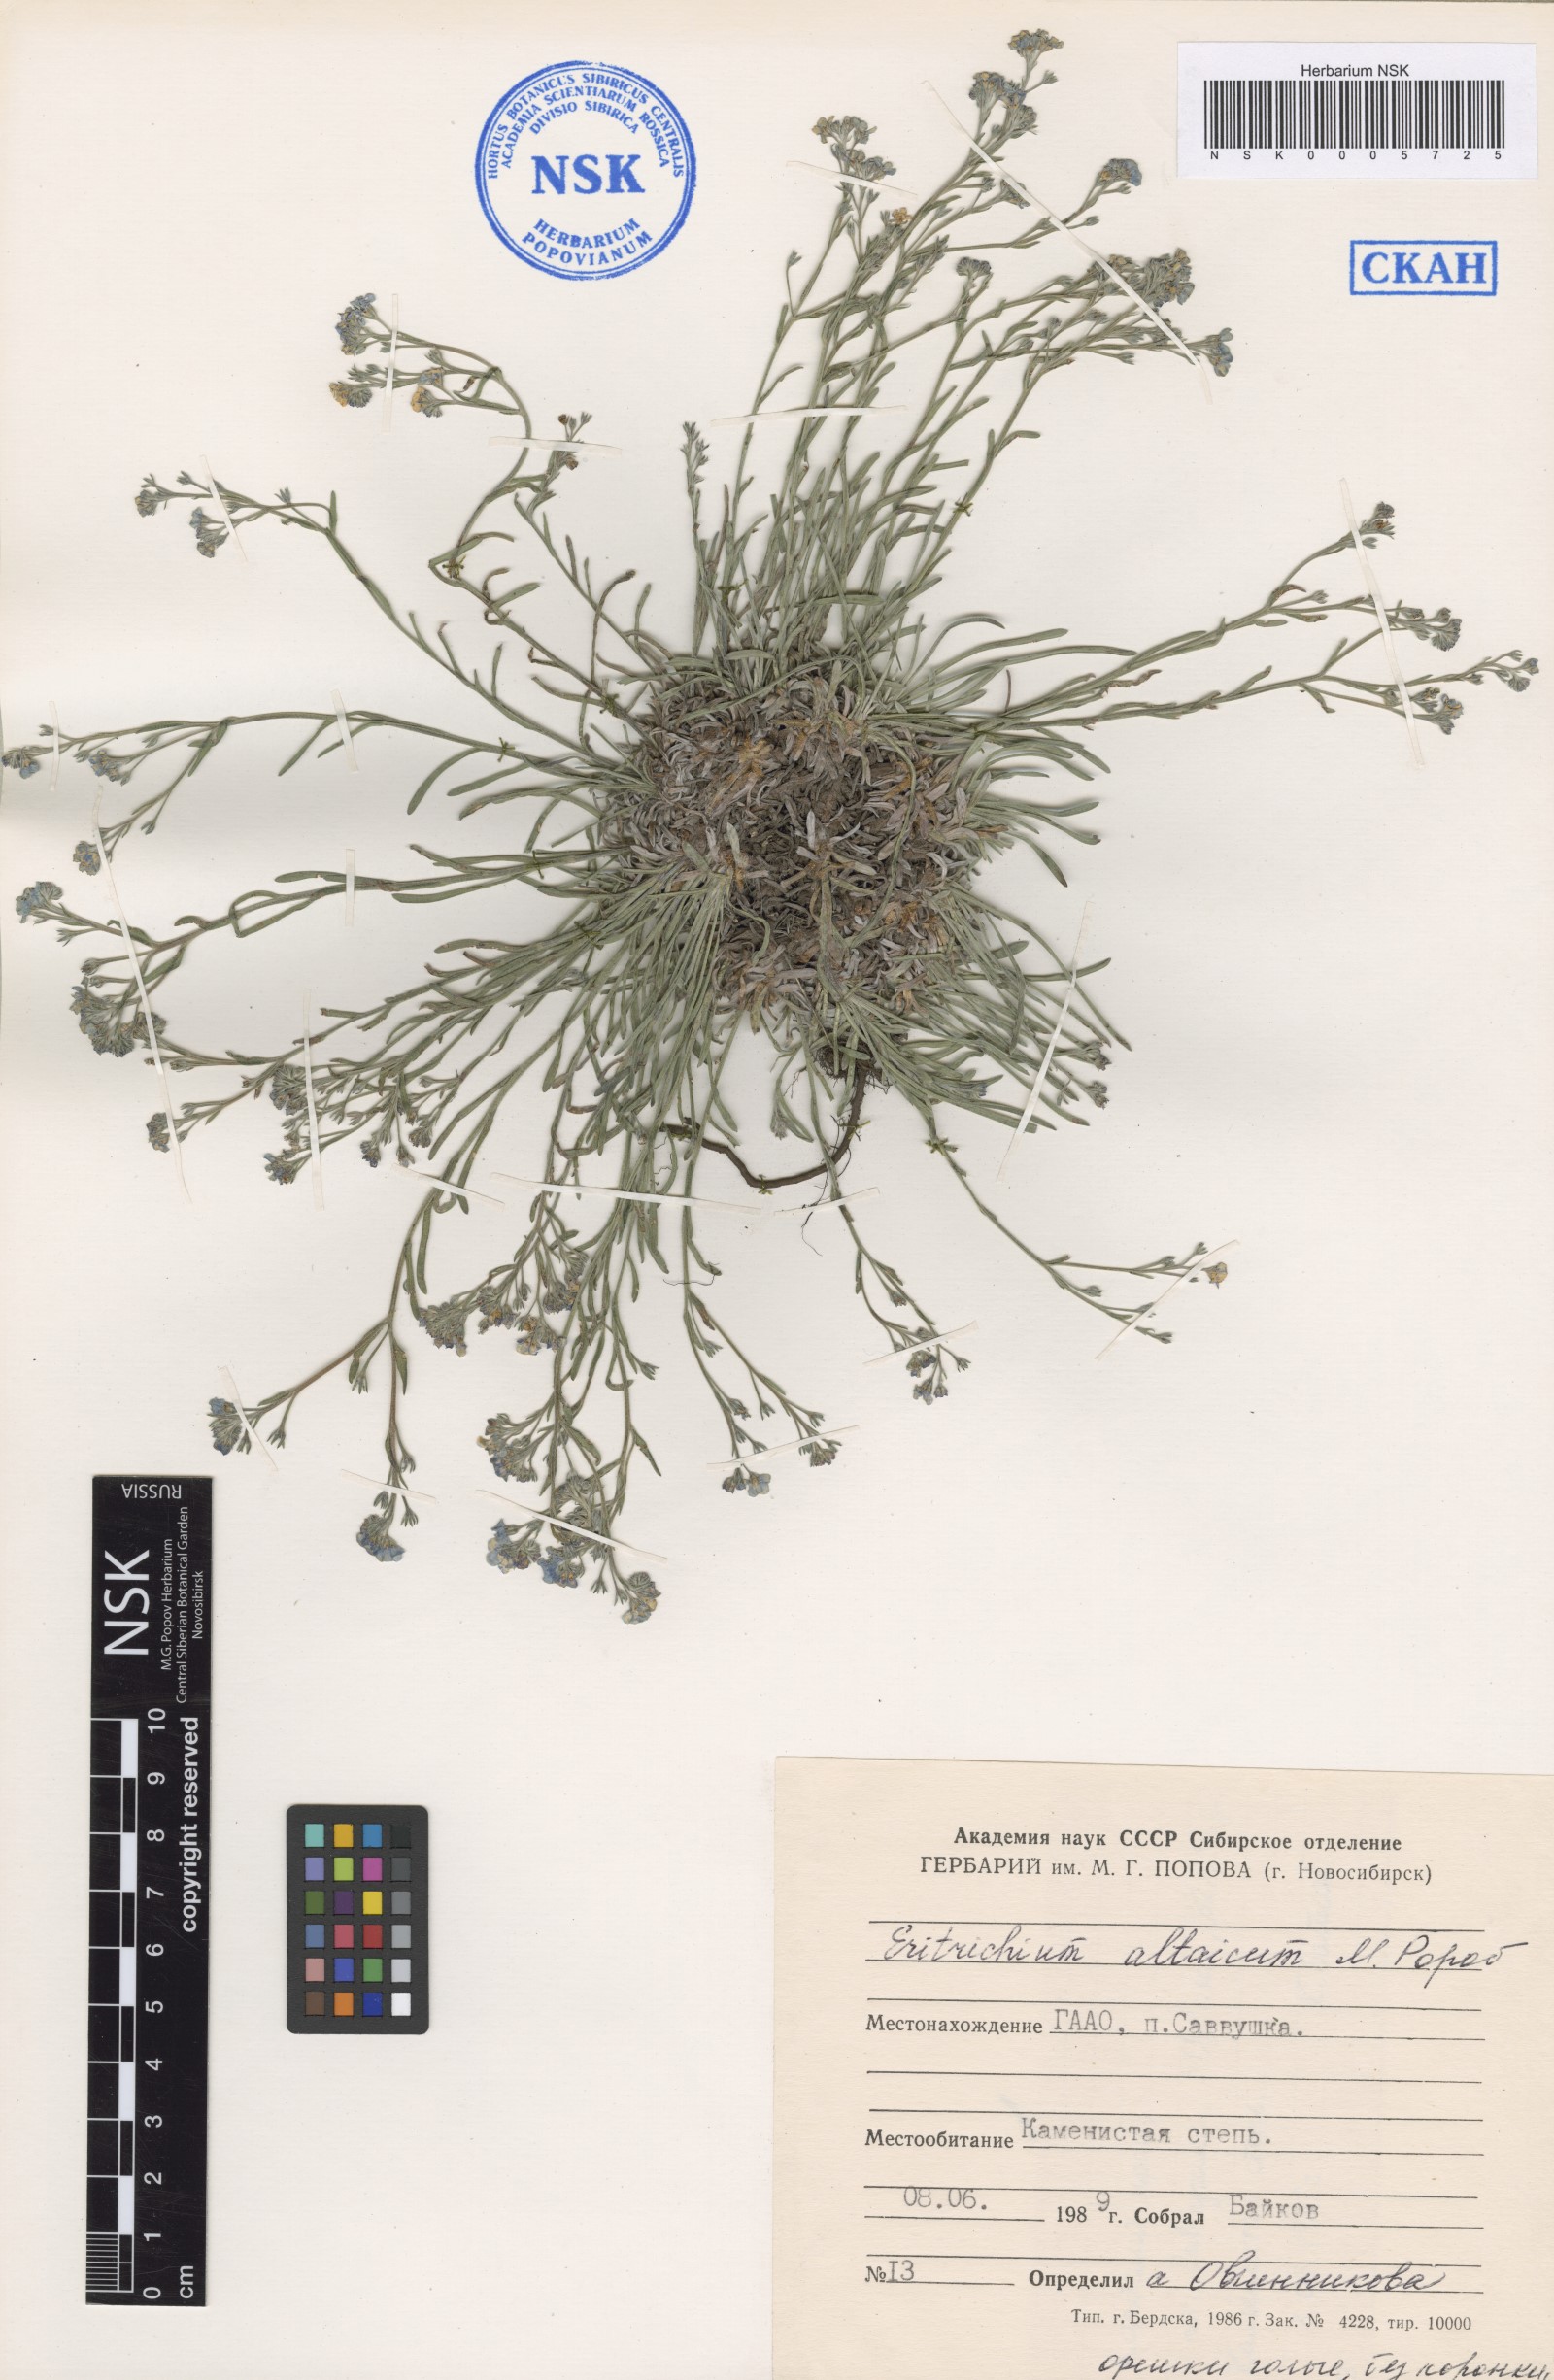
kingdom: Plantae
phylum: Tracheophyta
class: Magnoliopsida
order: Boraginales
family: Boraginaceae
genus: Eritrichium
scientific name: Eritrichium pauciflorum
